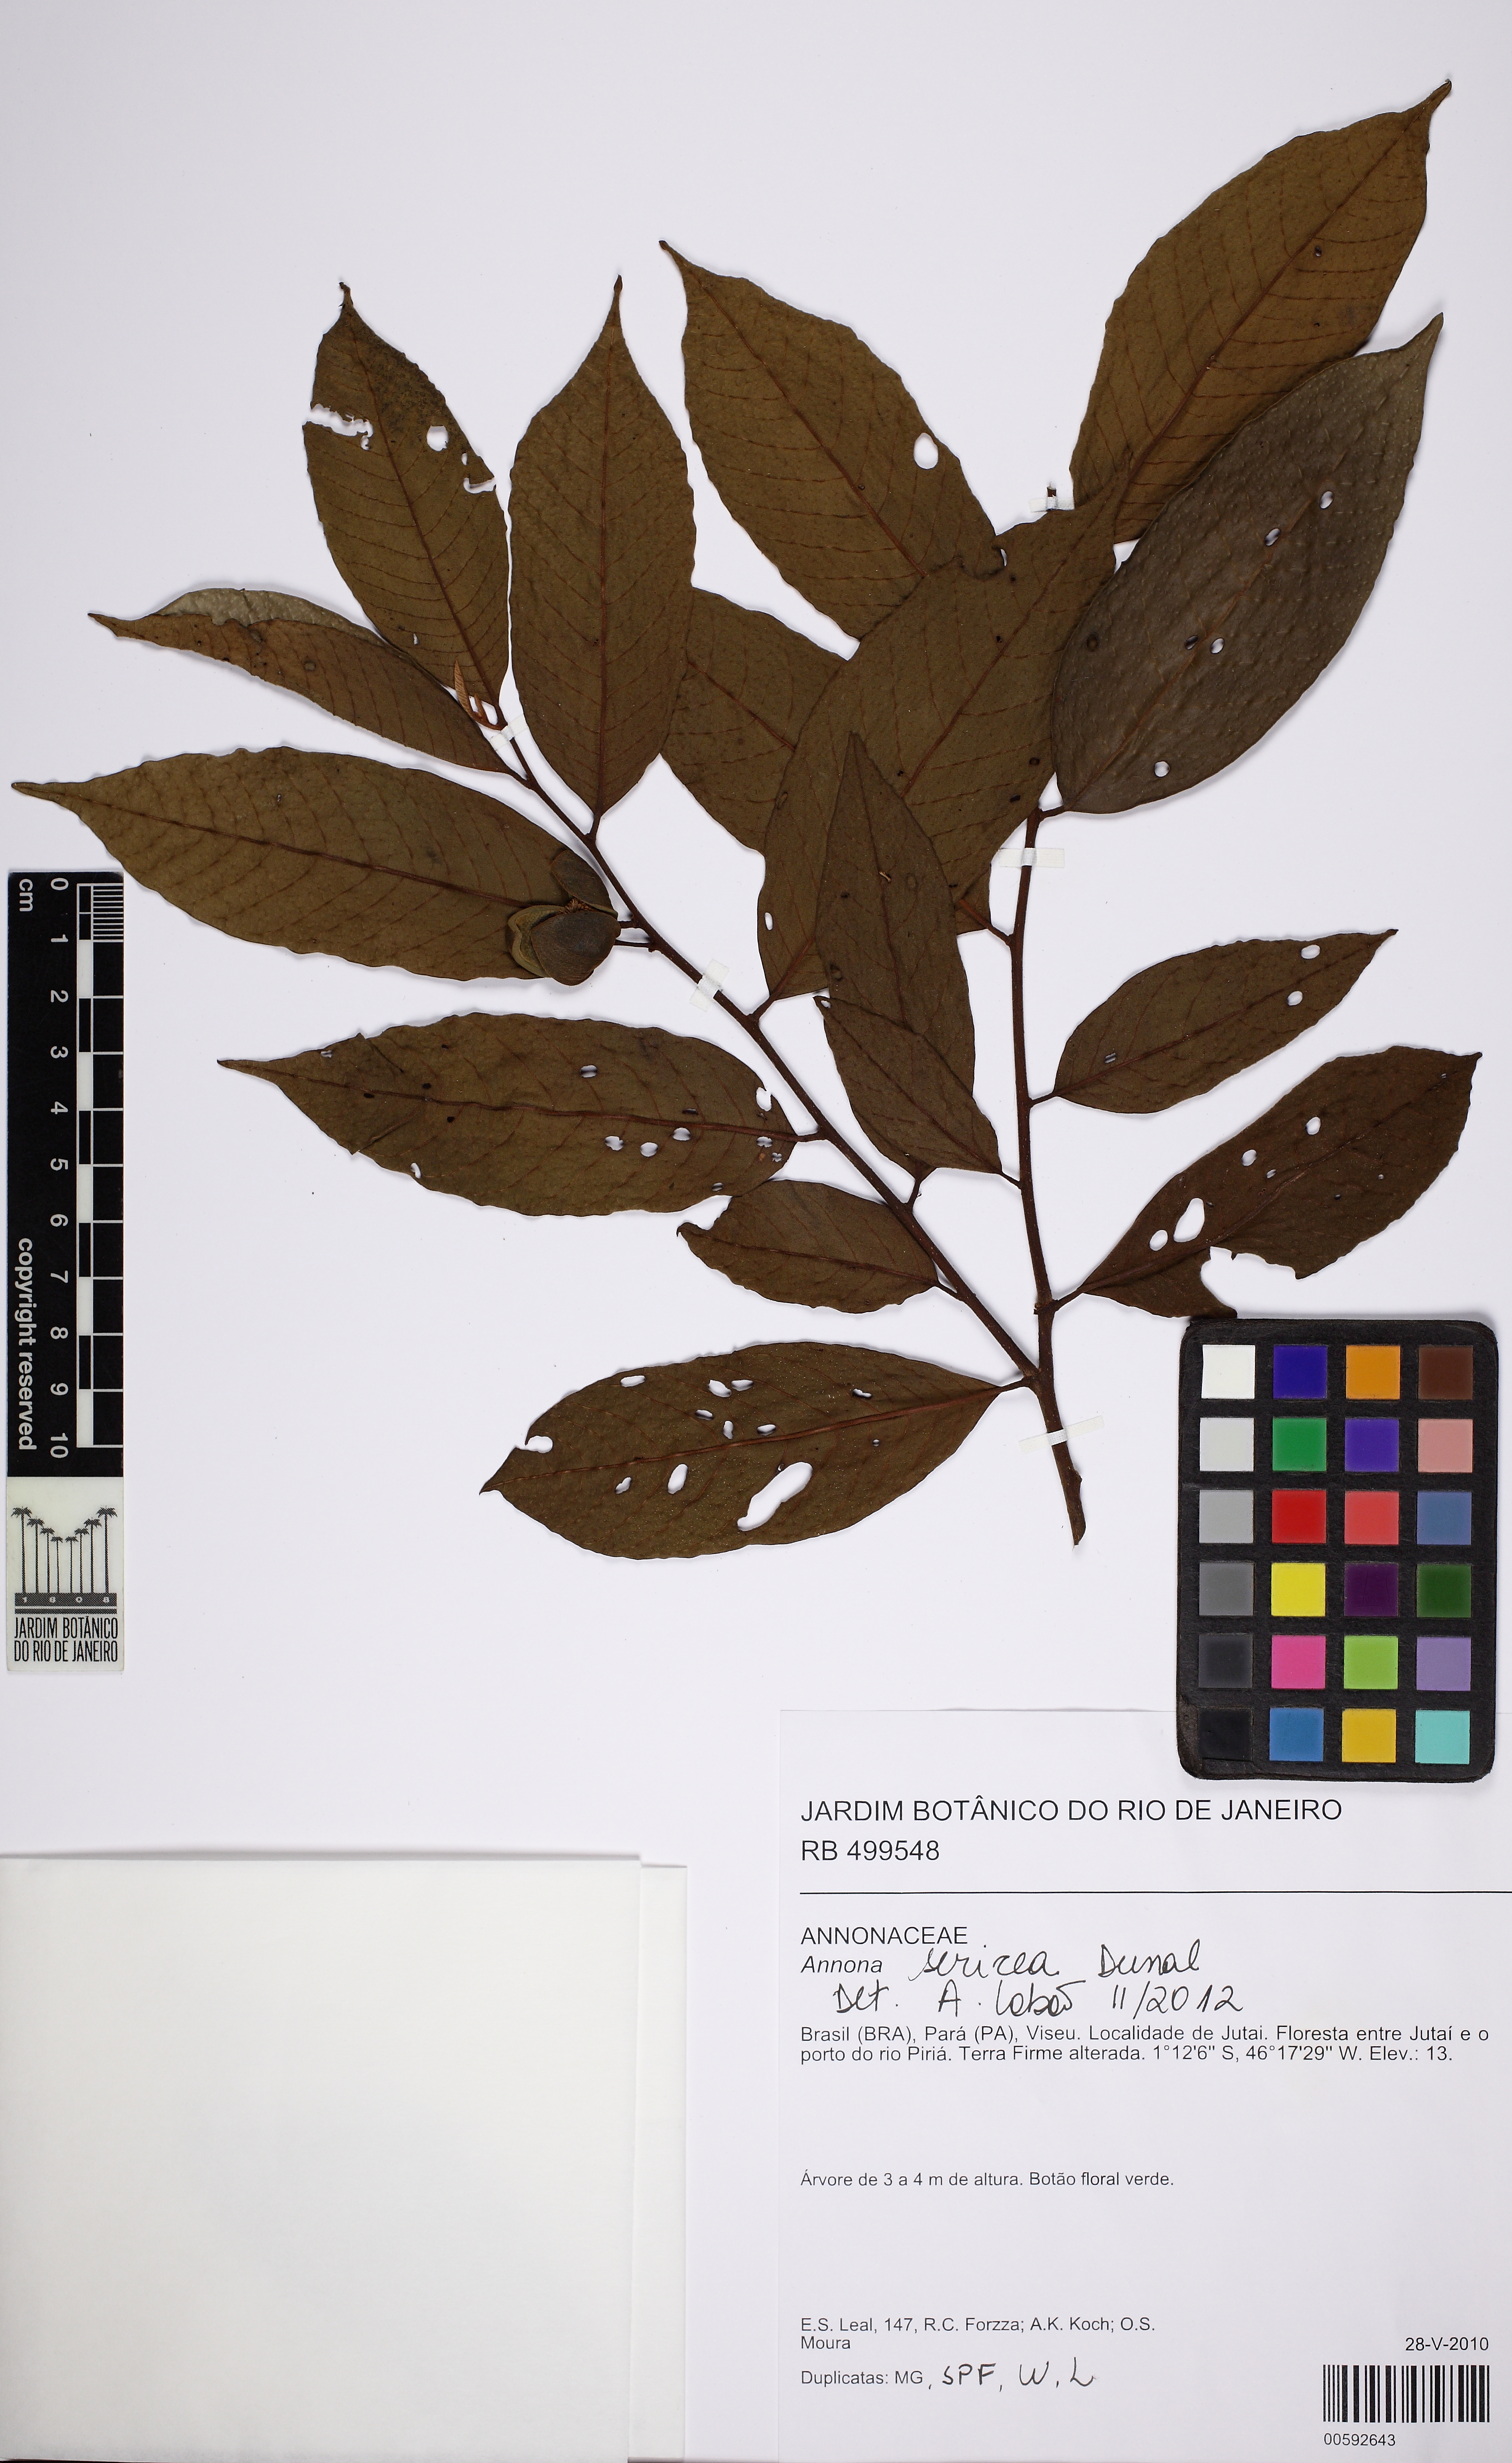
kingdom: Plantae
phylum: Tracheophyta
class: Magnoliopsida
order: Magnoliales
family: Annonaceae
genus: Annona
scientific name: Annona sericea
